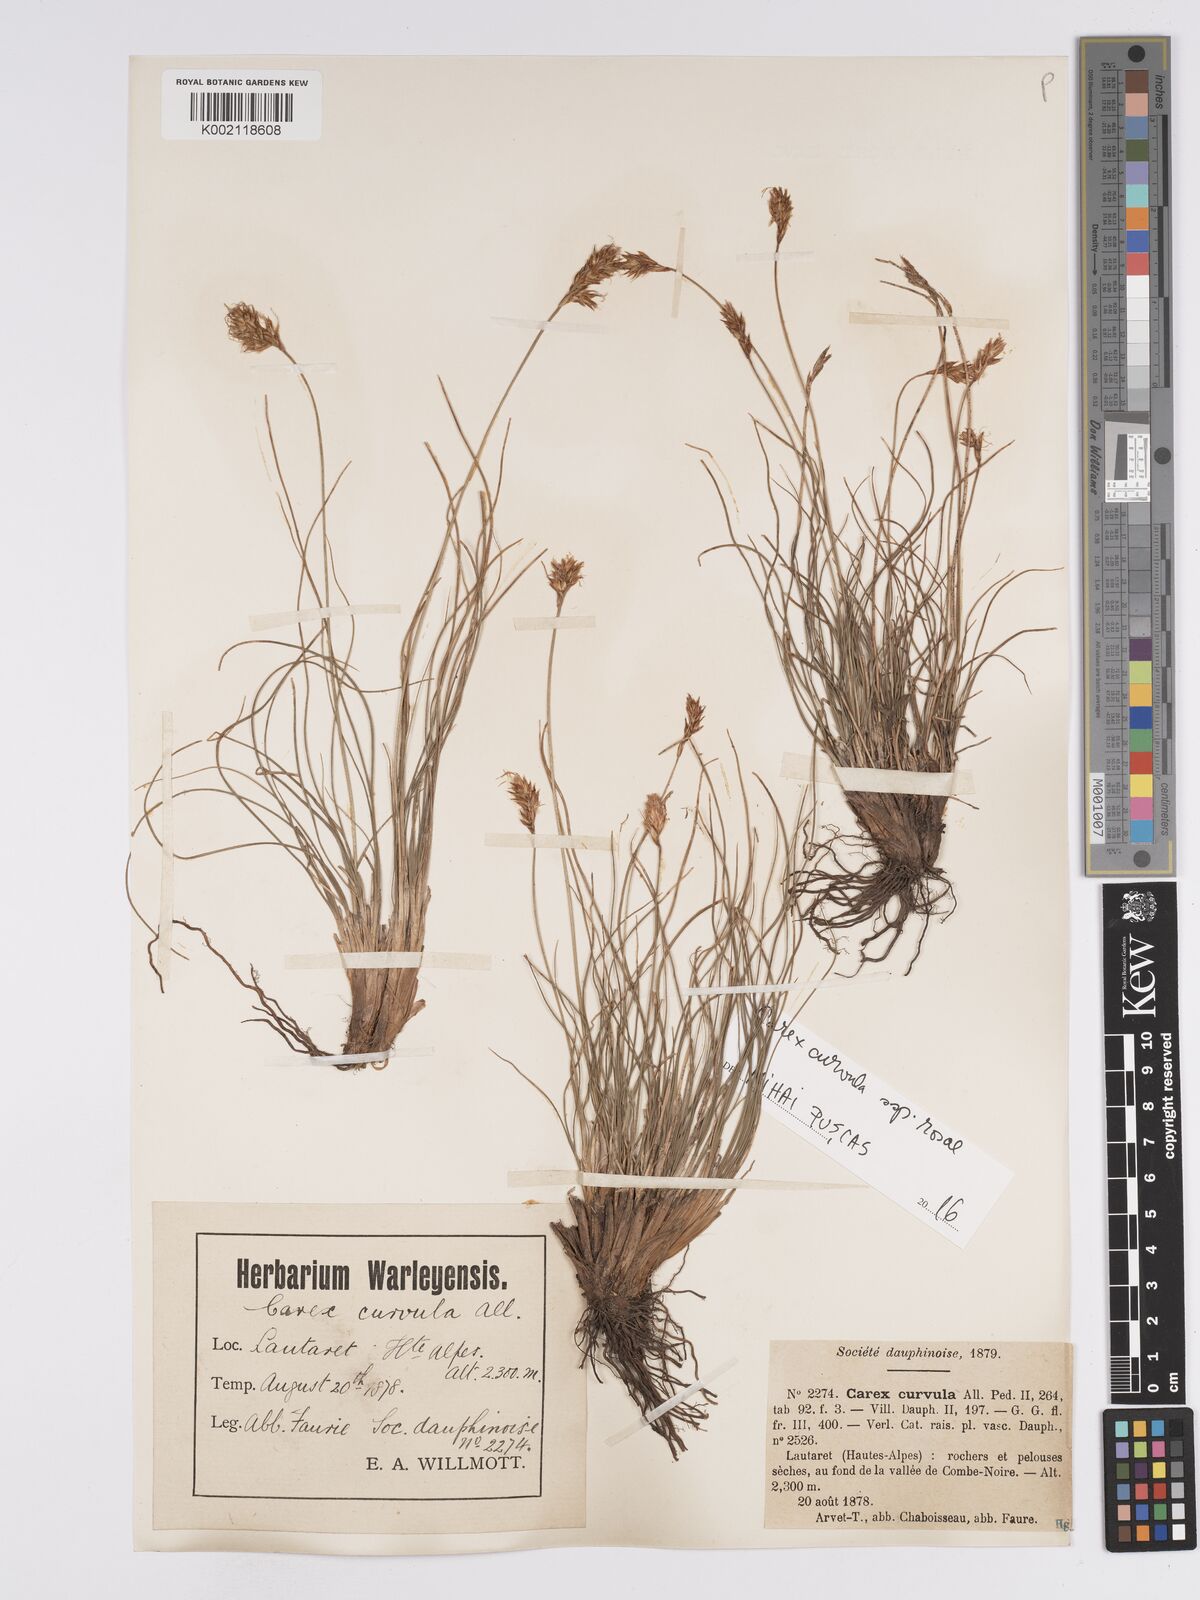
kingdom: Plantae
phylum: Tracheophyta
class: Liliopsida
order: Poales
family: Cyperaceae
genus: Carex
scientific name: Carex curvula
